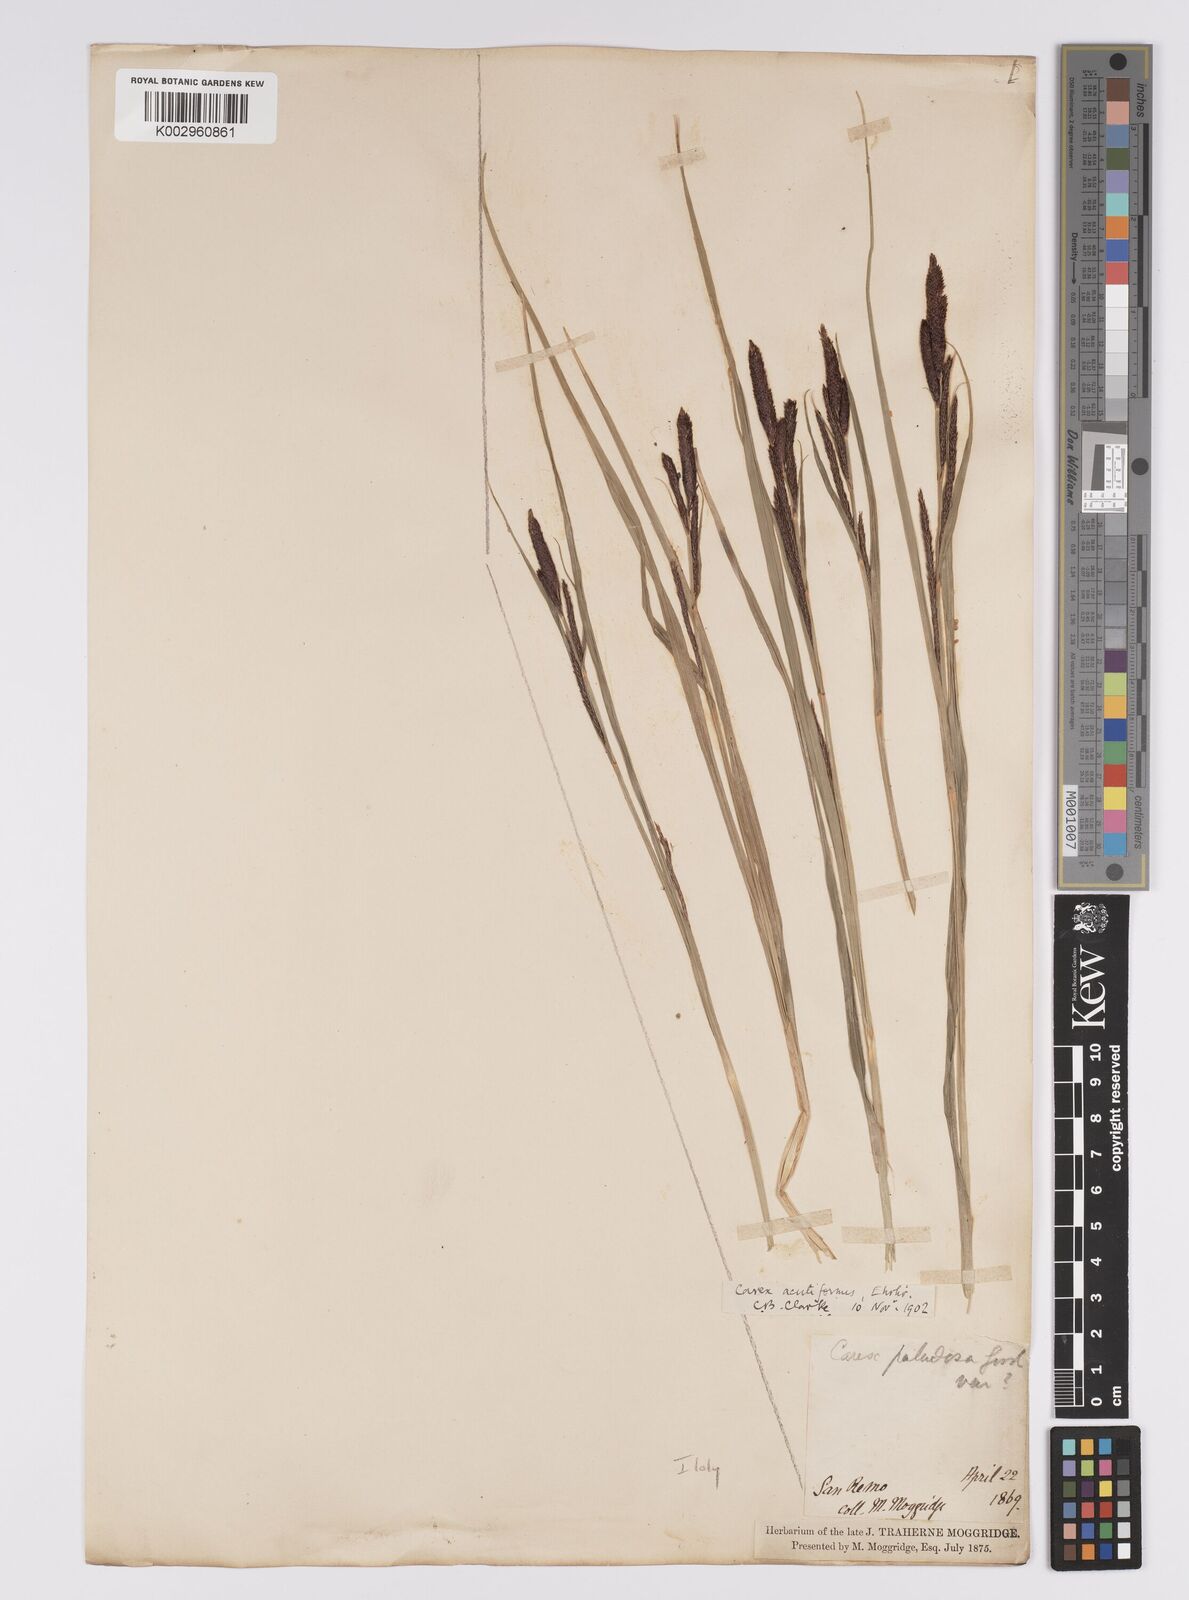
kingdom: Plantae
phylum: Tracheophyta
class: Liliopsida
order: Poales
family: Cyperaceae
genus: Carex
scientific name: Carex acutiformis
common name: Lesser pond-sedge
